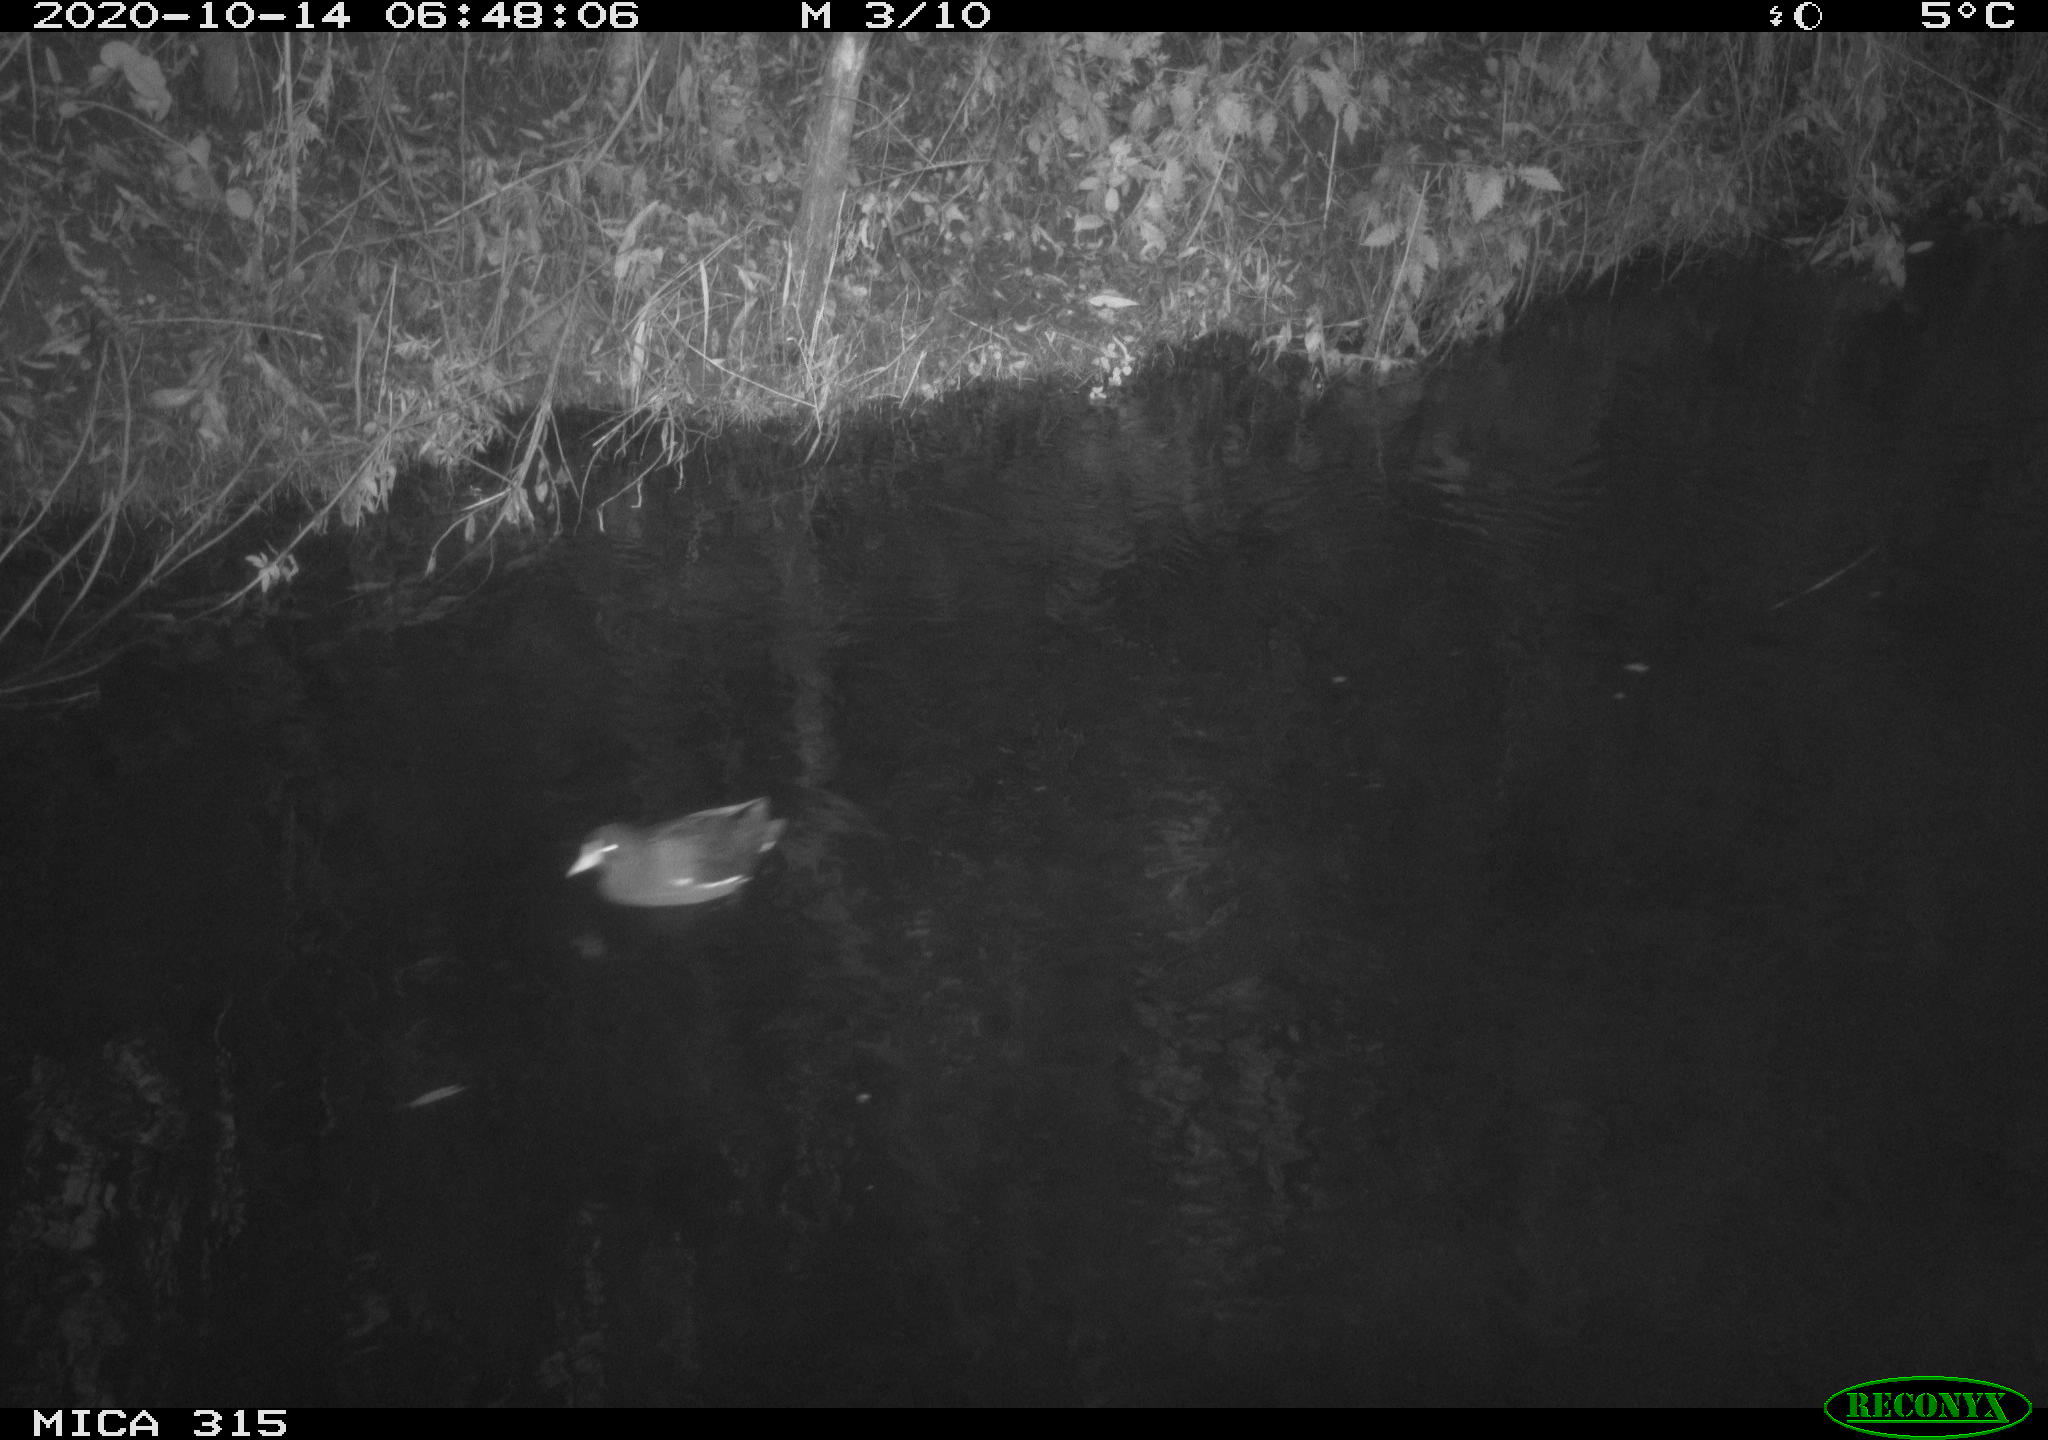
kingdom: Animalia
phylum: Chordata
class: Aves
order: Gruiformes
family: Rallidae
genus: Gallinula
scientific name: Gallinula chloropus
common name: Common moorhen
